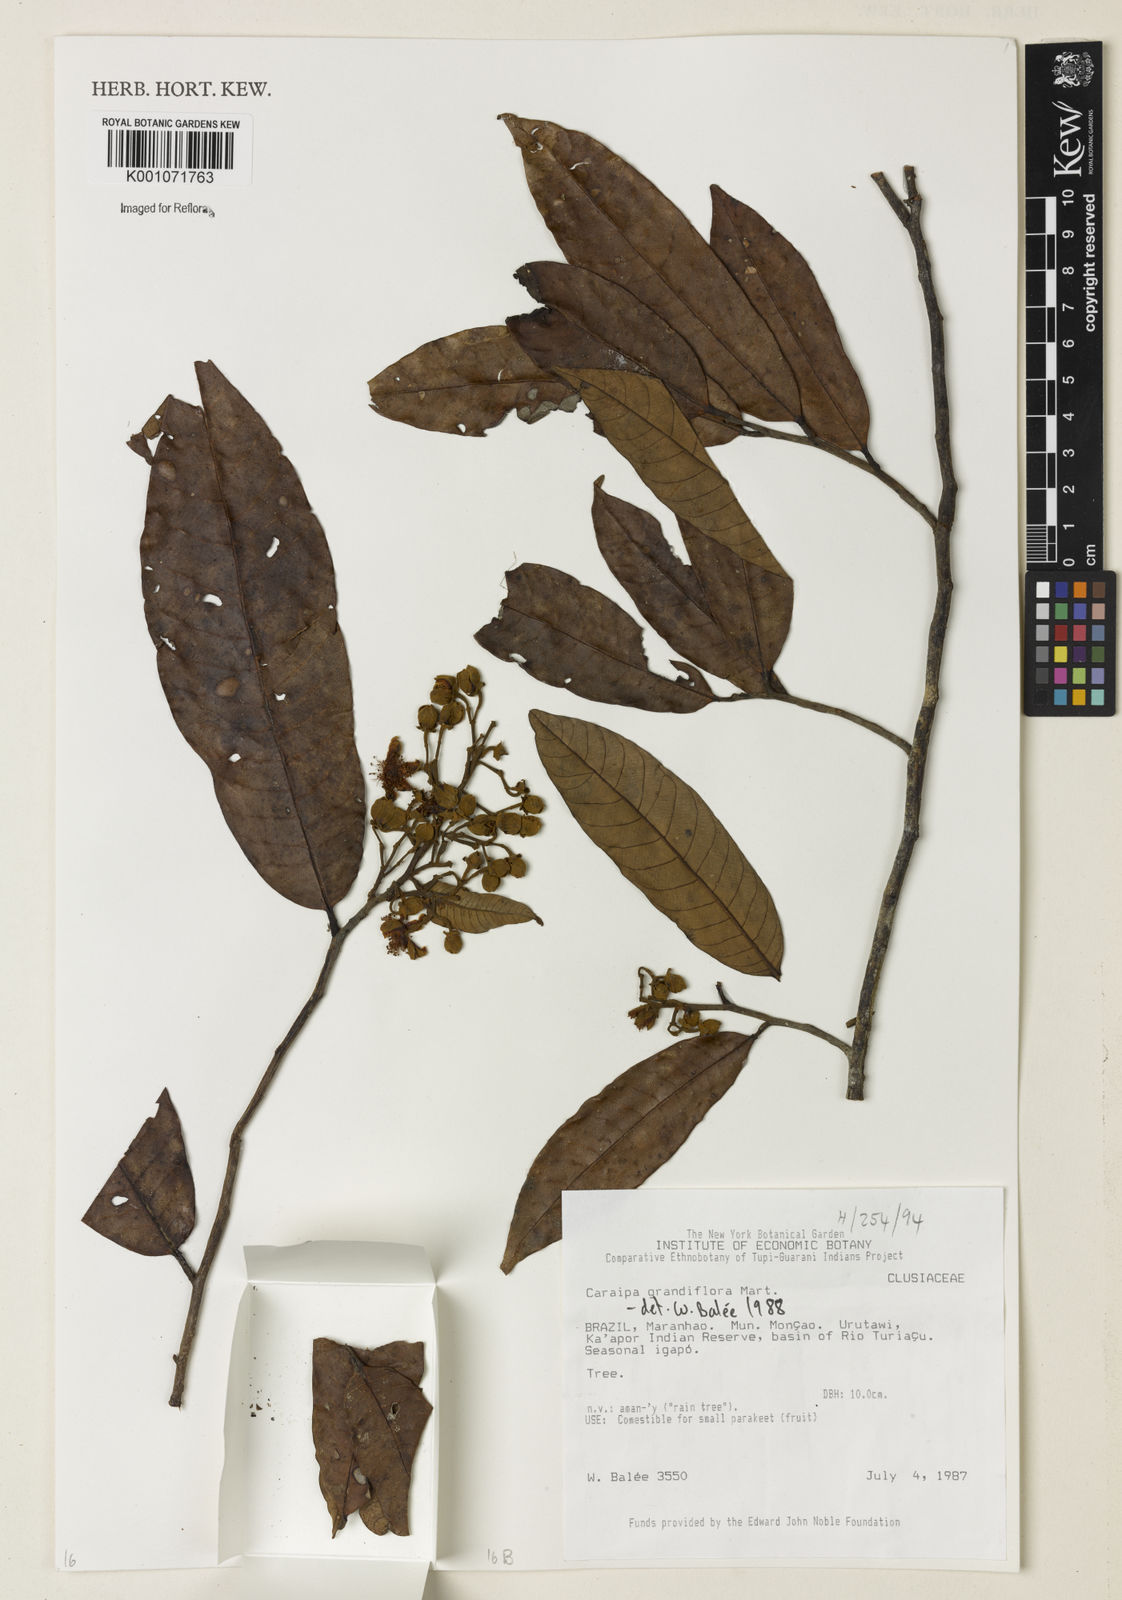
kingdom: Plantae
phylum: Tracheophyta
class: Magnoliopsida
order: Malpighiales
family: Calophyllaceae
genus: Caraipa
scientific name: Caraipa grandifolia
